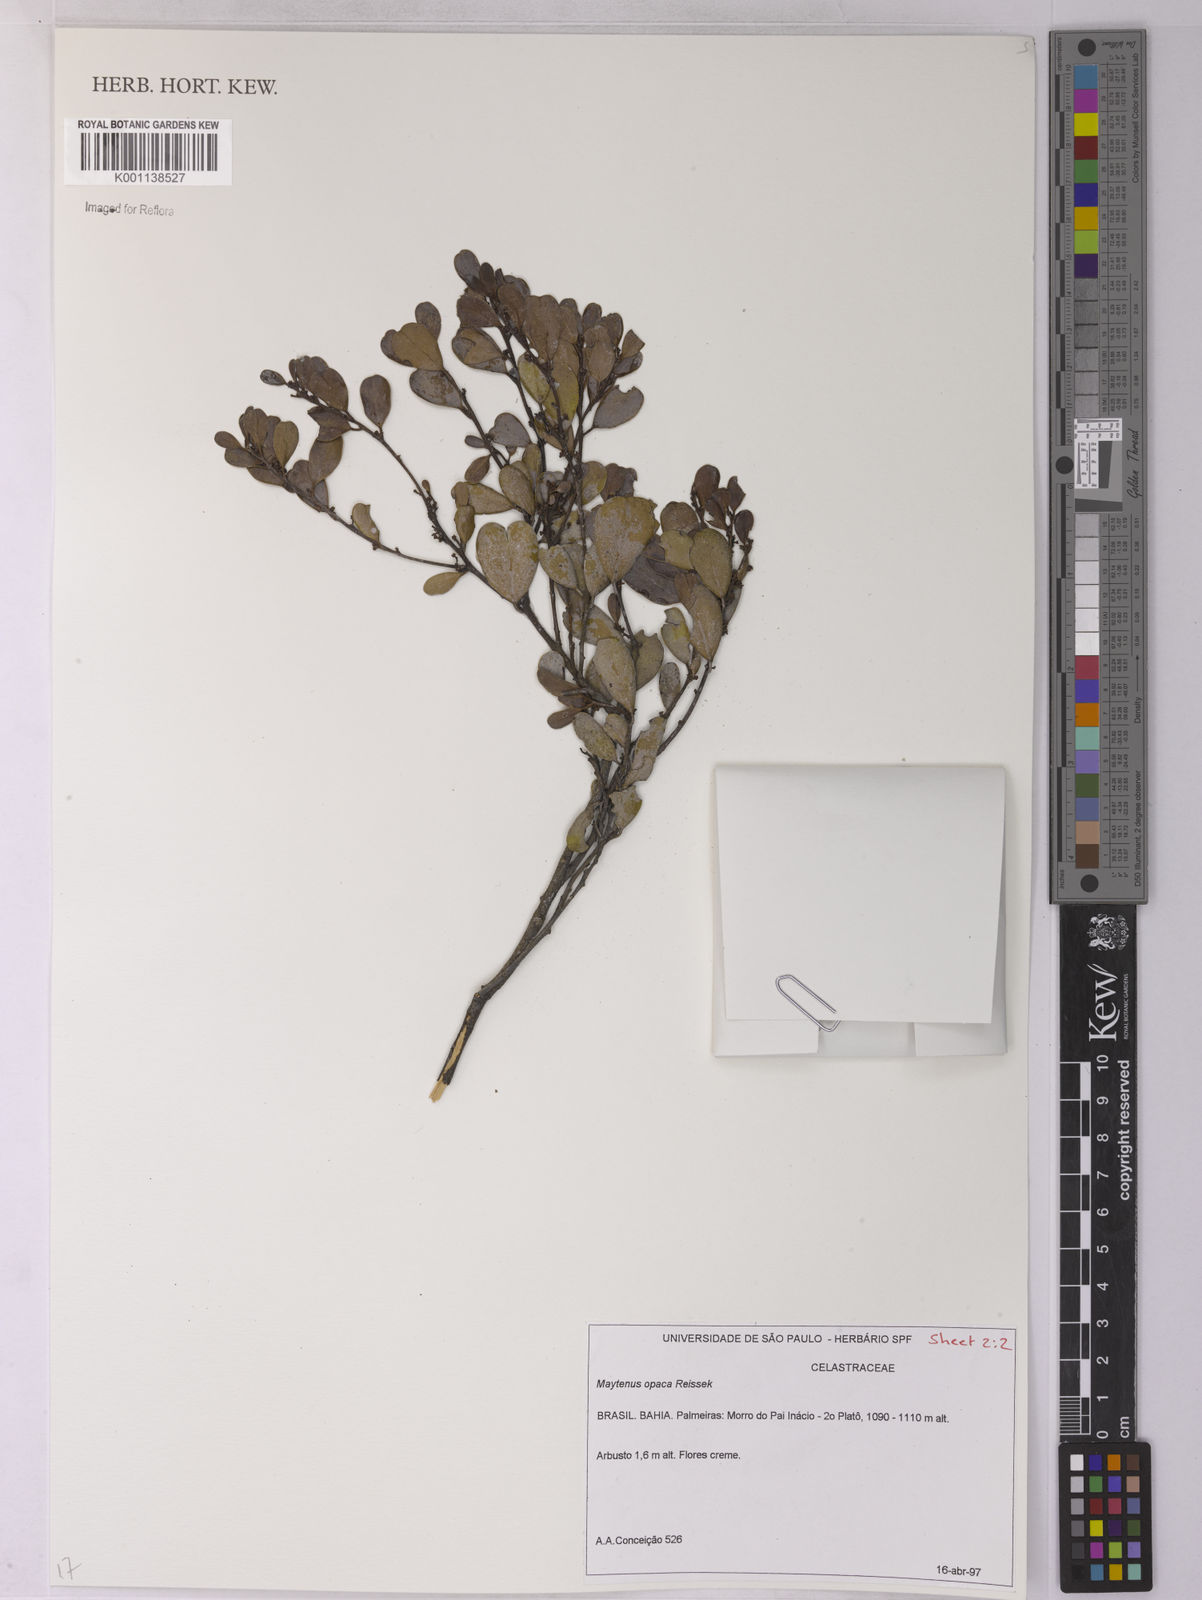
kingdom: Plantae
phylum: Tracheophyta
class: Magnoliopsida
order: Celastrales
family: Celastraceae
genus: Monteverdia
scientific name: Monteverdia opaca
